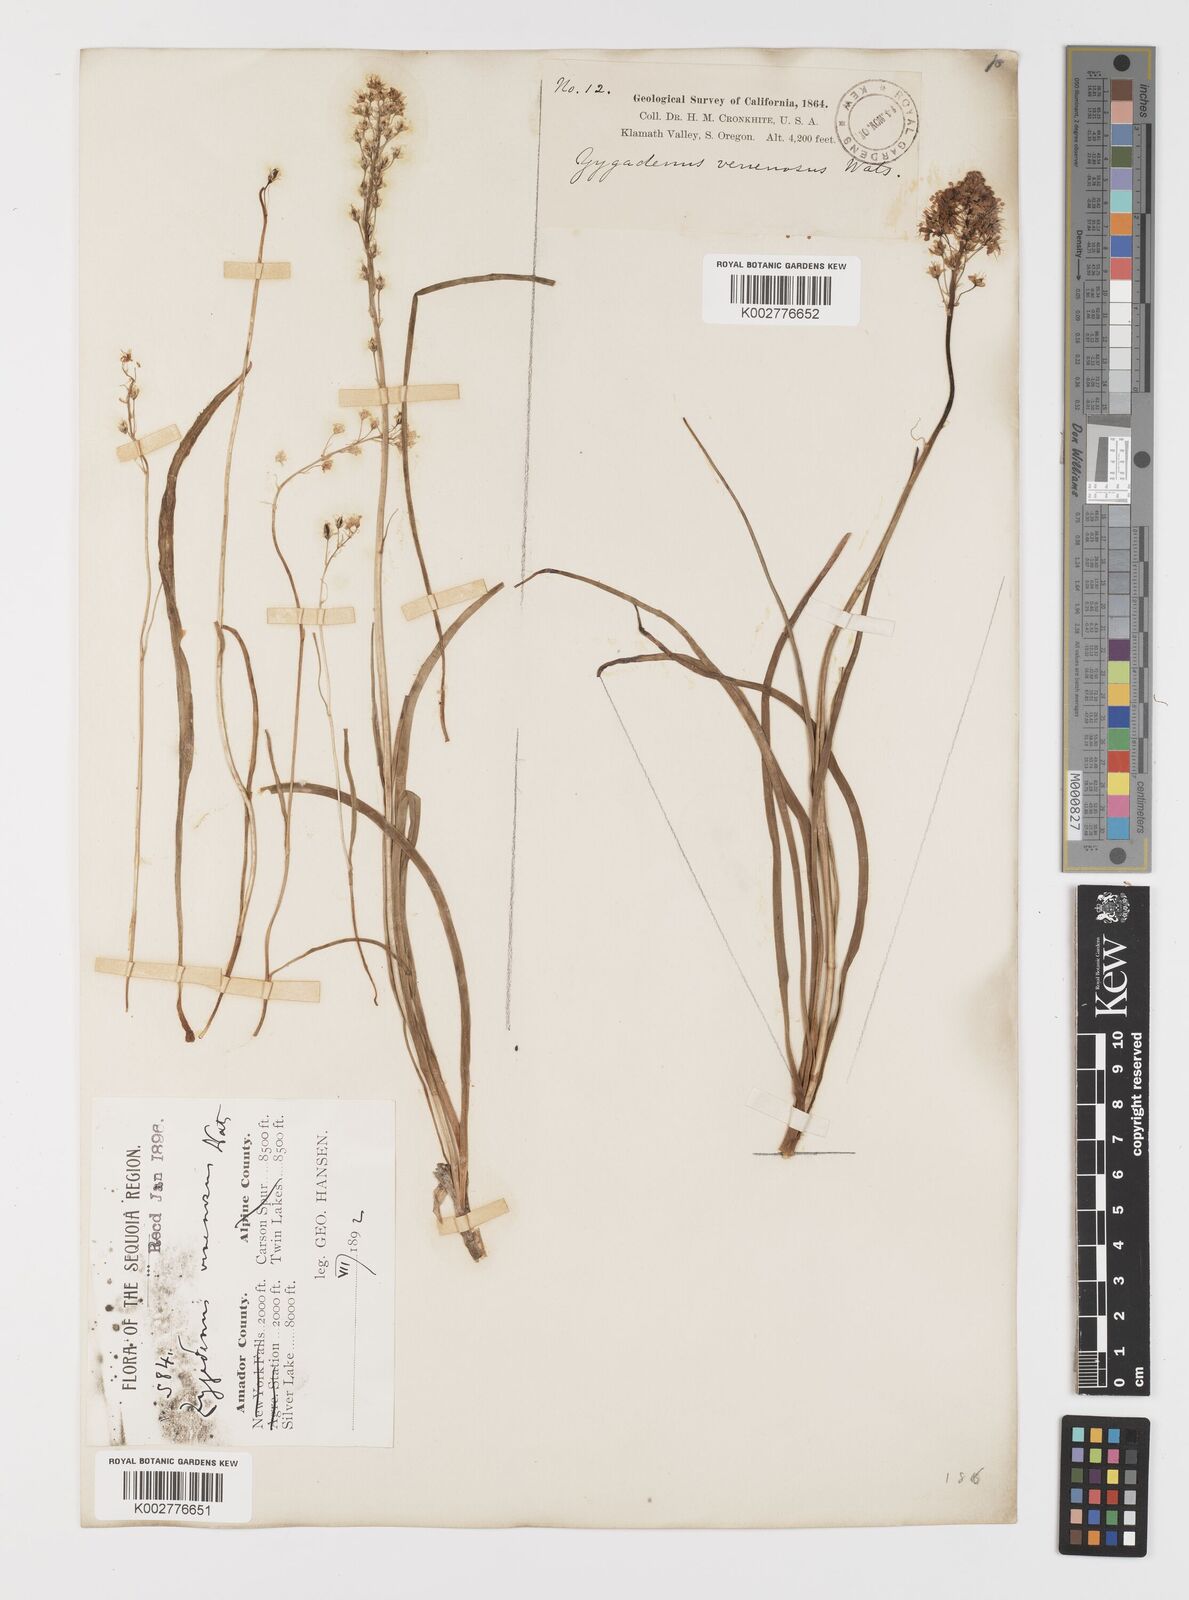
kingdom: Plantae
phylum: Tracheophyta
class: Liliopsida
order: Liliales
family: Melanthiaceae
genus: Toxicoscordion
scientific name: Toxicoscordion venenosum
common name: Meadow death camas
